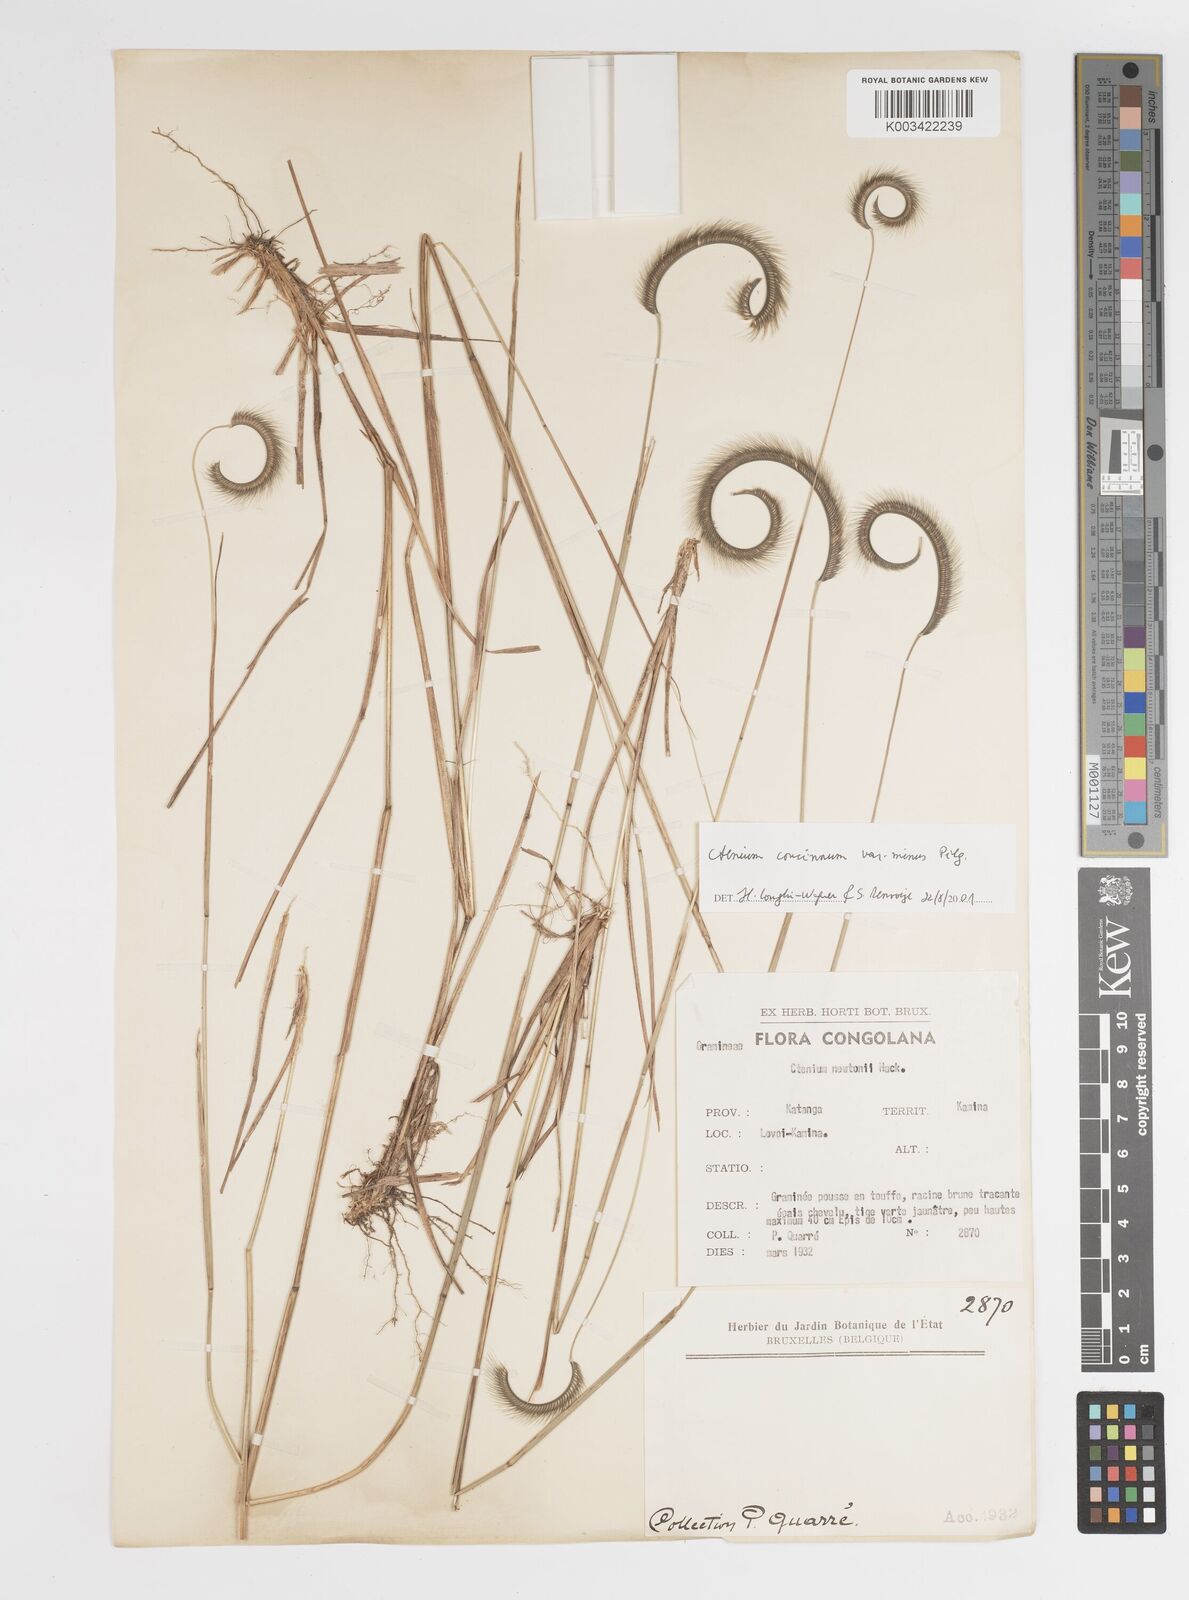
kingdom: Plantae
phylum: Tracheophyta
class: Liliopsida
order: Poales
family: Poaceae
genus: Ctenium
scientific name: Ctenium concinnum
